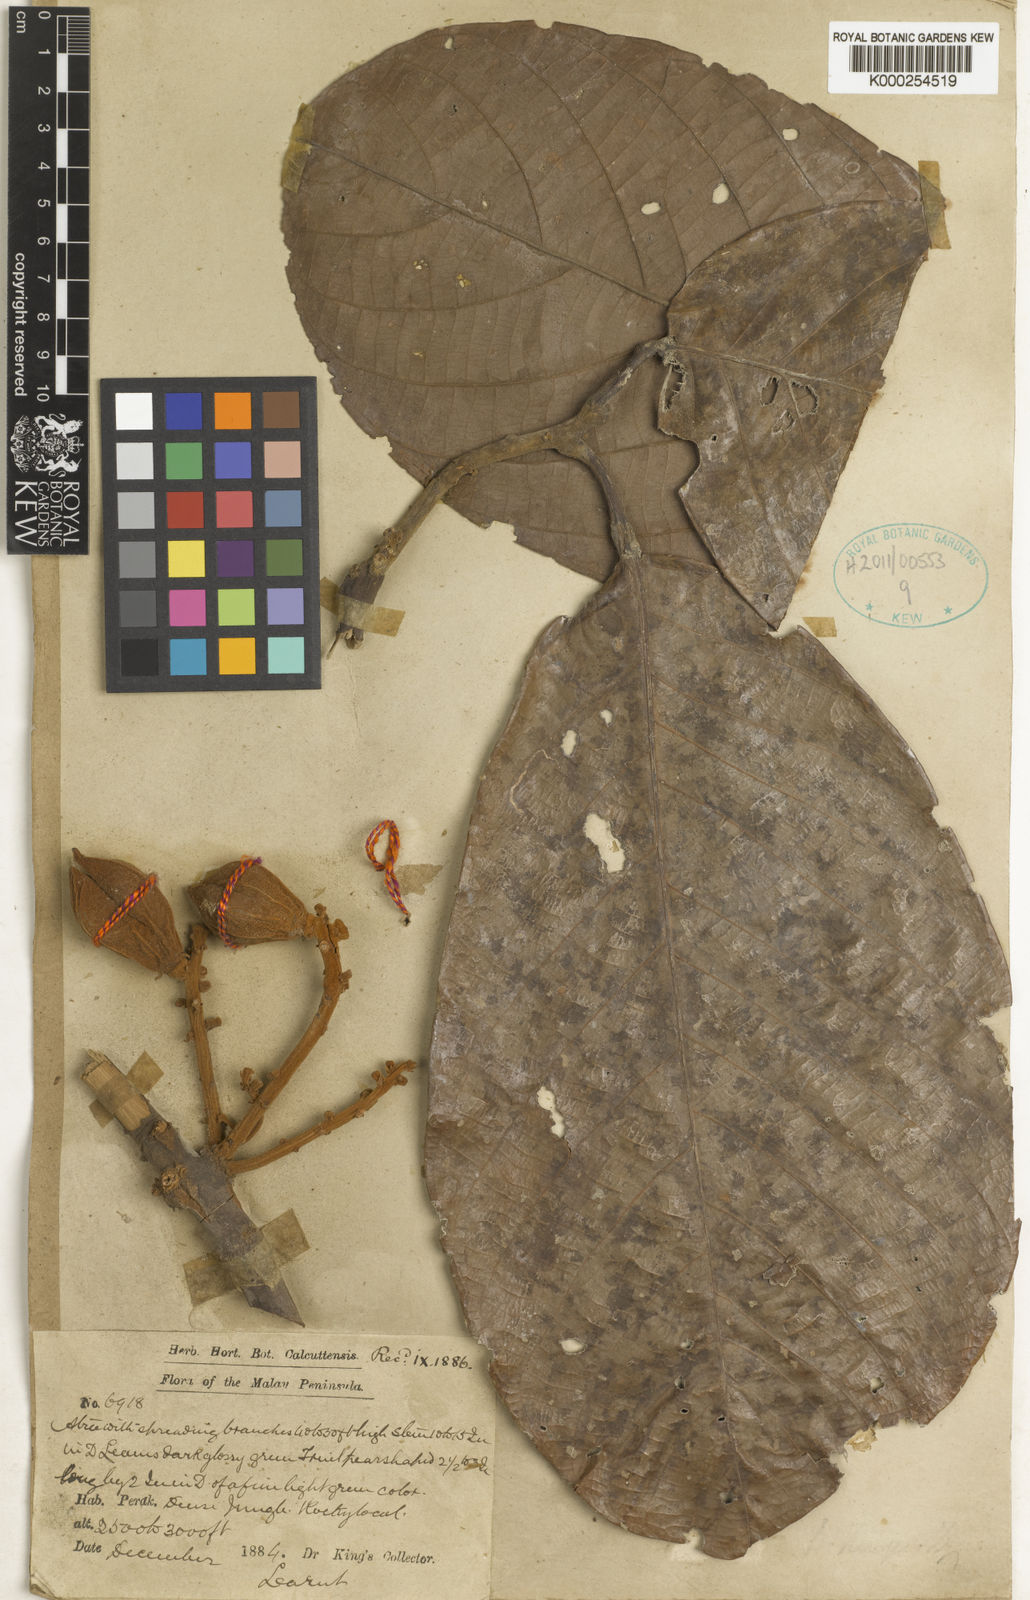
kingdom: Plantae
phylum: Tracheophyta
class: Magnoliopsida
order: Malpighiales
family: Euphorbiaceae
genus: Ptychopyxis
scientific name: Ptychopyxis kingii
